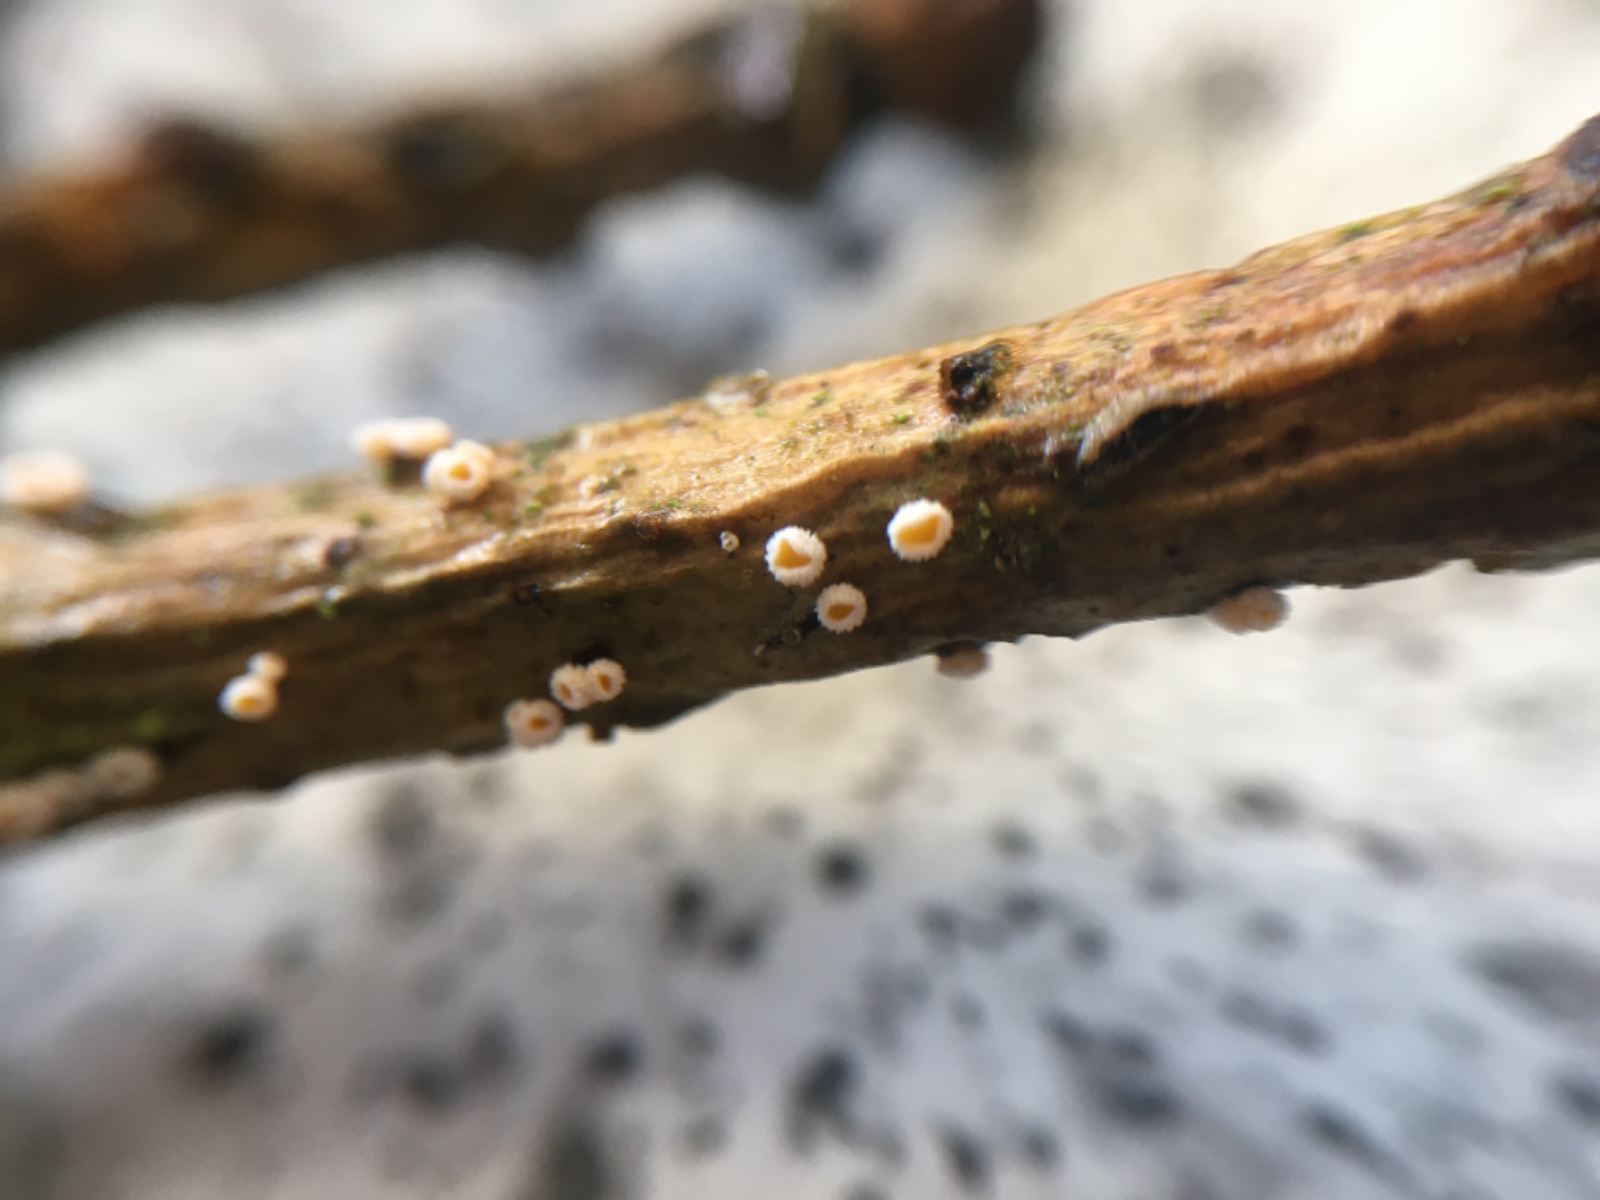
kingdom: Fungi
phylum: Ascomycota
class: Leotiomycetes
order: Helotiales
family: Lachnaceae
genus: Capitotricha
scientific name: Capitotricha bicolor
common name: prægtig frynseskive
